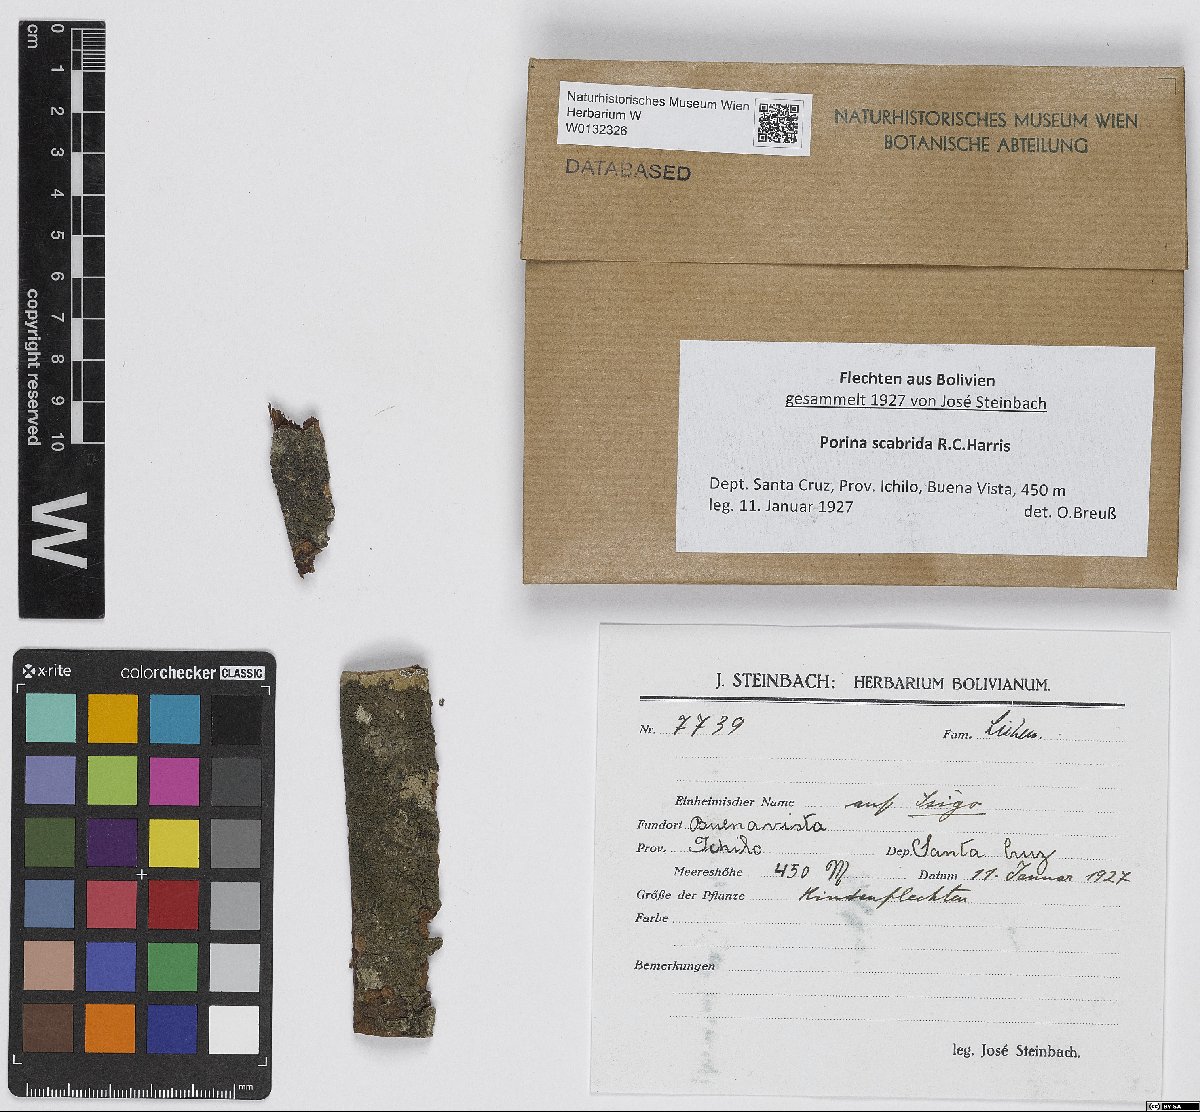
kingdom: Fungi
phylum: Ascomycota
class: Lecanoromycetes
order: Ostropales
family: Porinaceae
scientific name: Porinaceae
